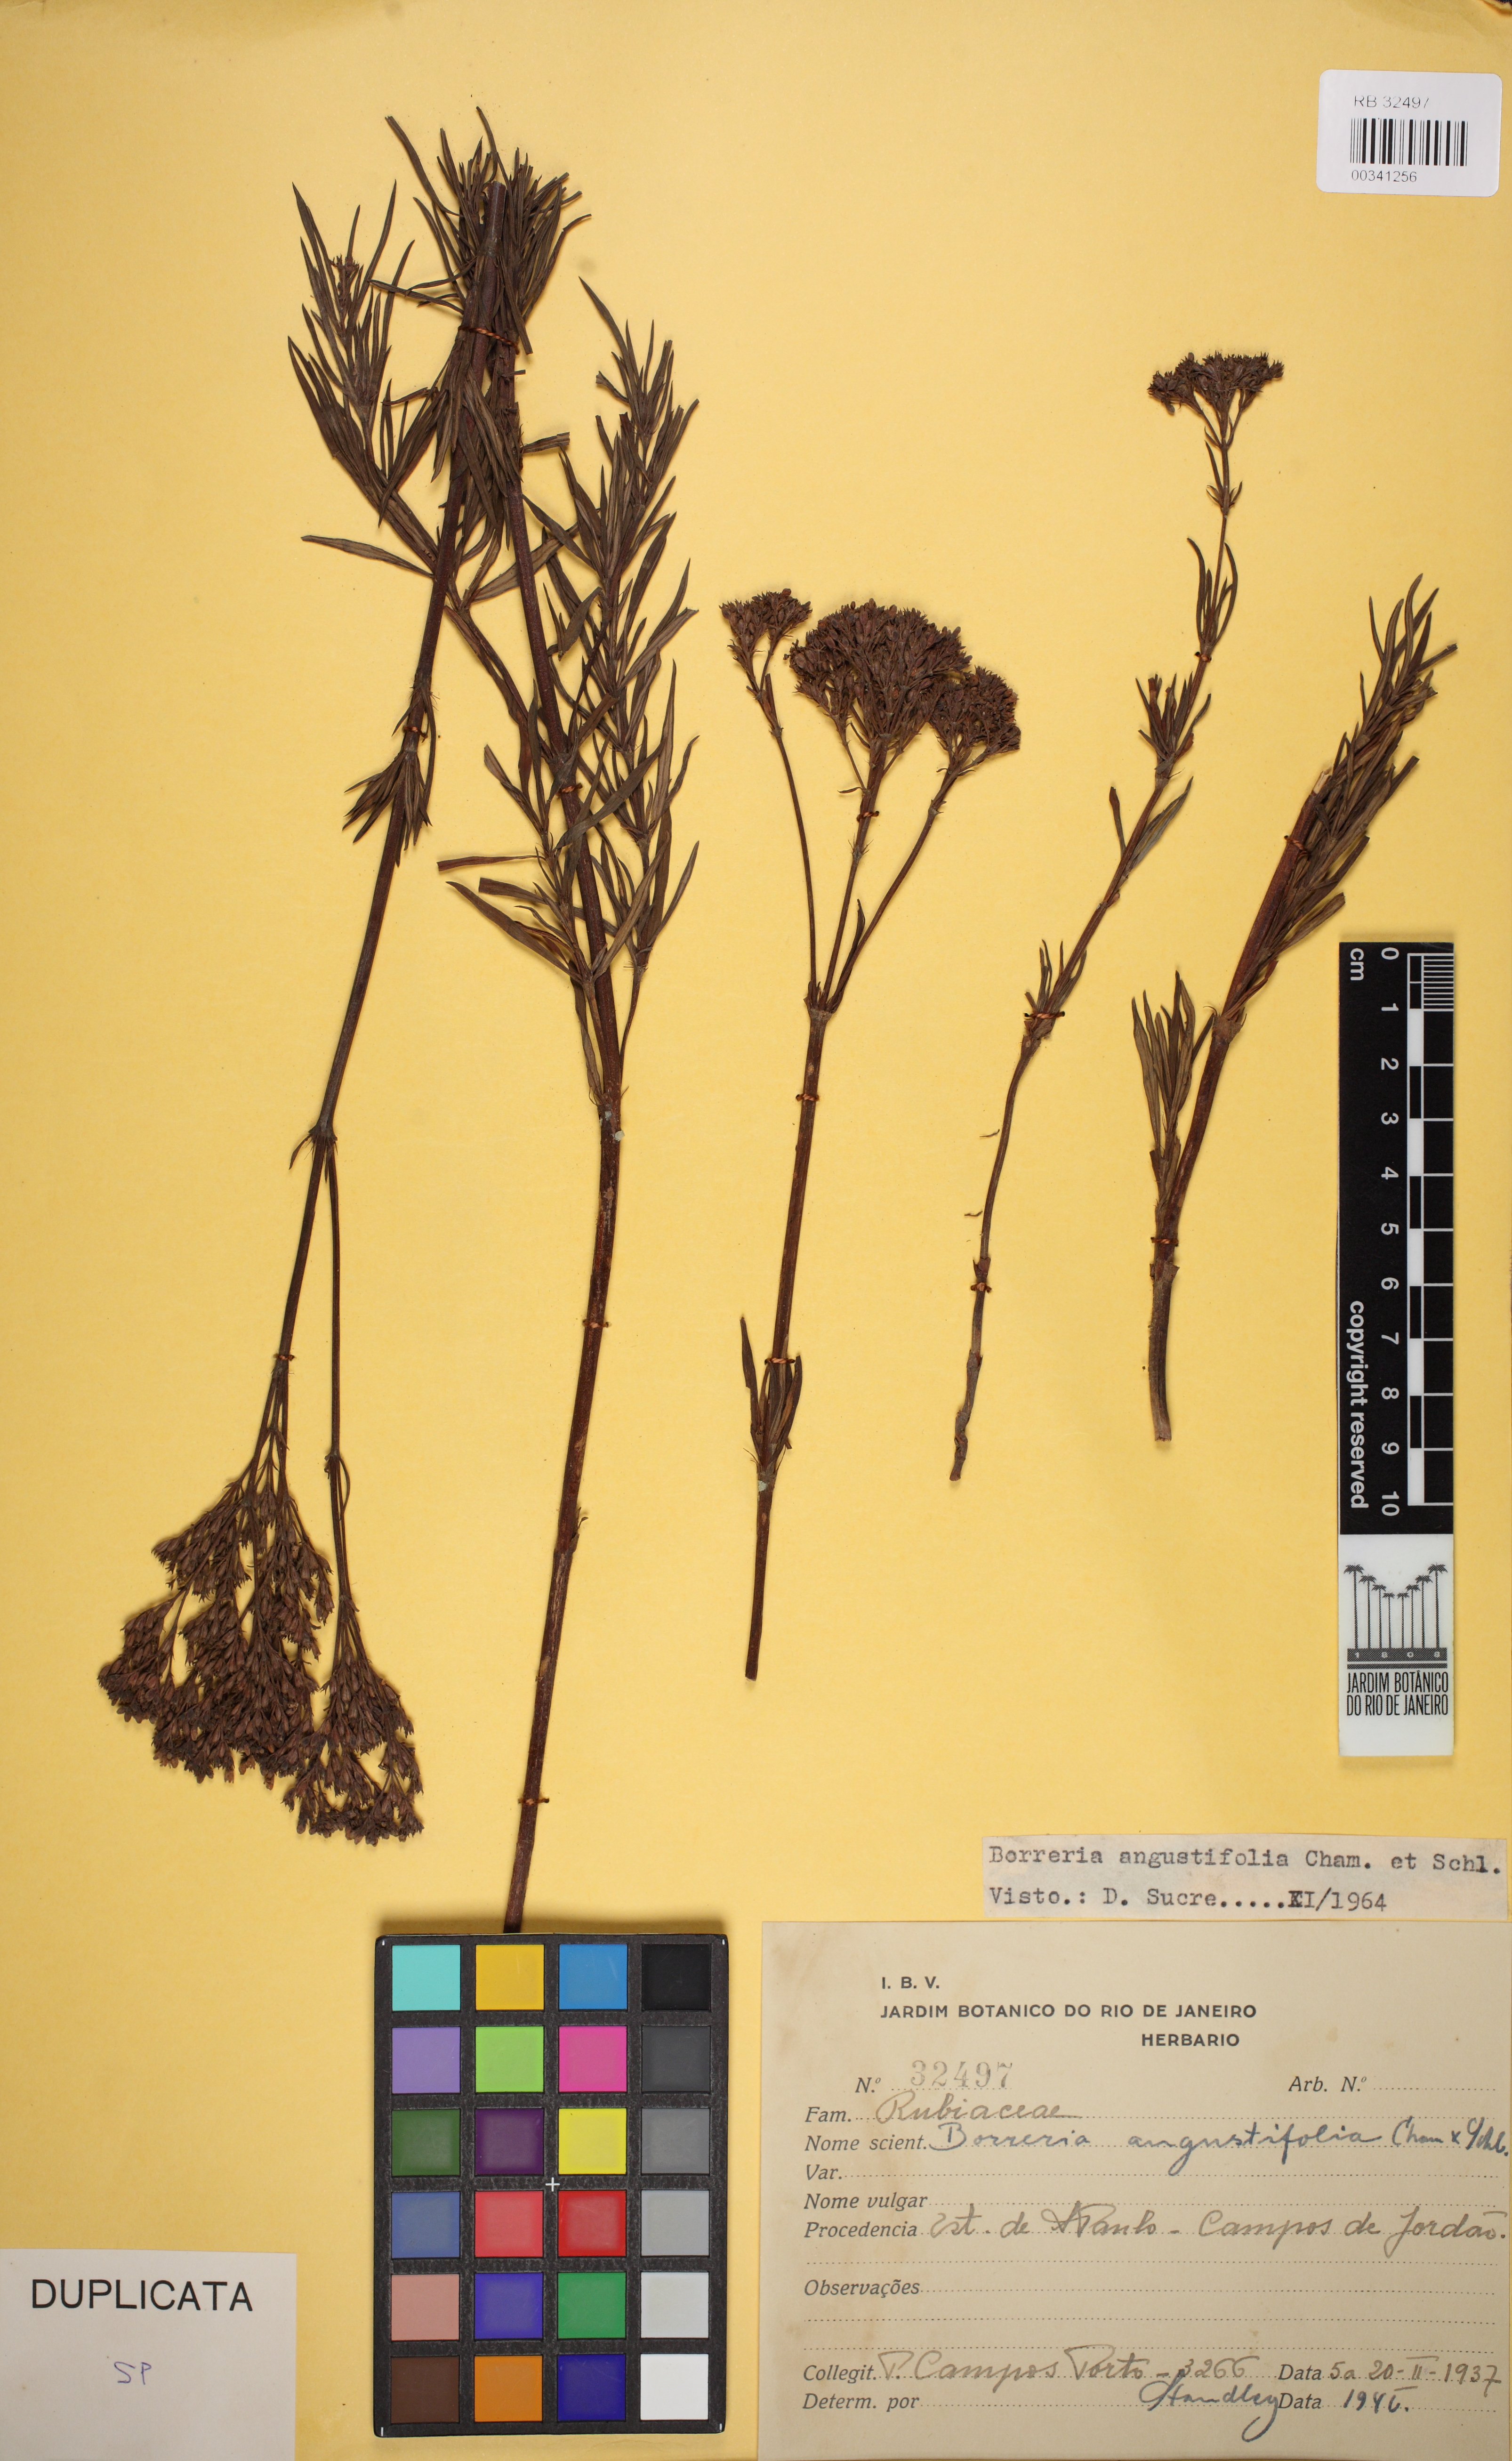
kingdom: Plantae
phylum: Tracheophyta
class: Magnoliopsida
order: Gentianales
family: Rubiaceae
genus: Galianthe
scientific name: Galianthe angustifolia
